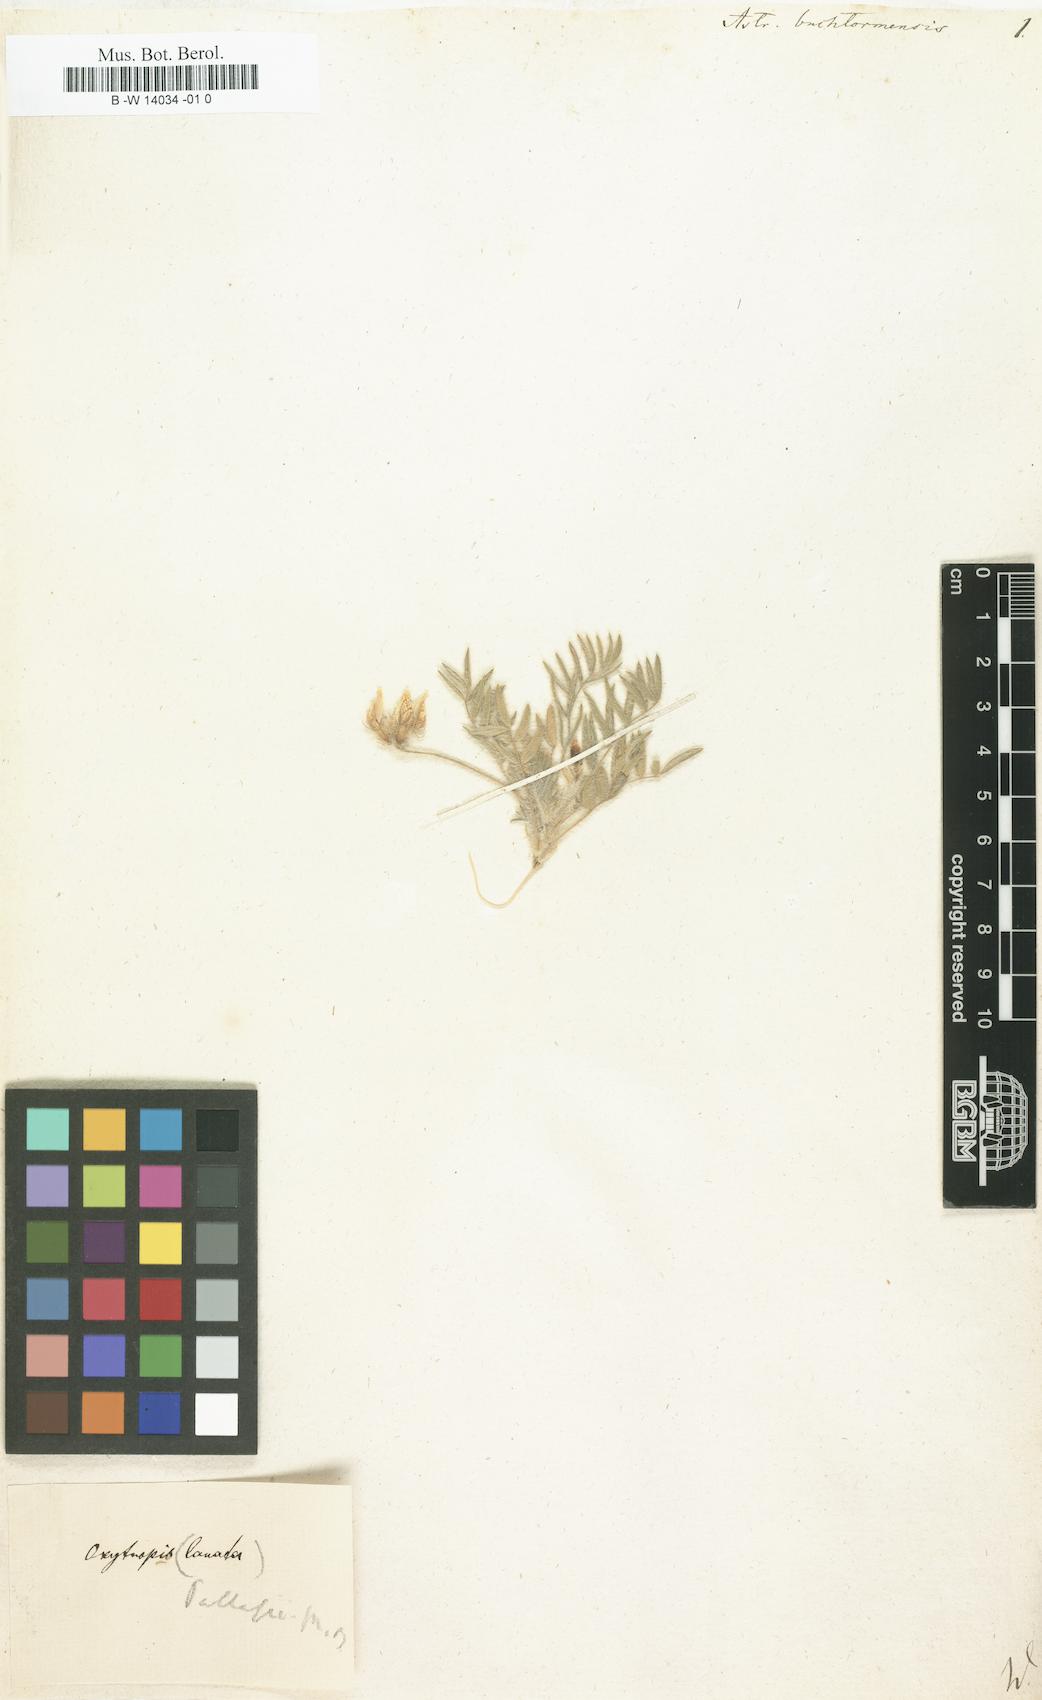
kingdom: Plantae
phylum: Tracheophyta
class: Magnoliopsida
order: Fabales
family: Fabaceae
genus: Astragalus
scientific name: Astragalus buchtormensis
